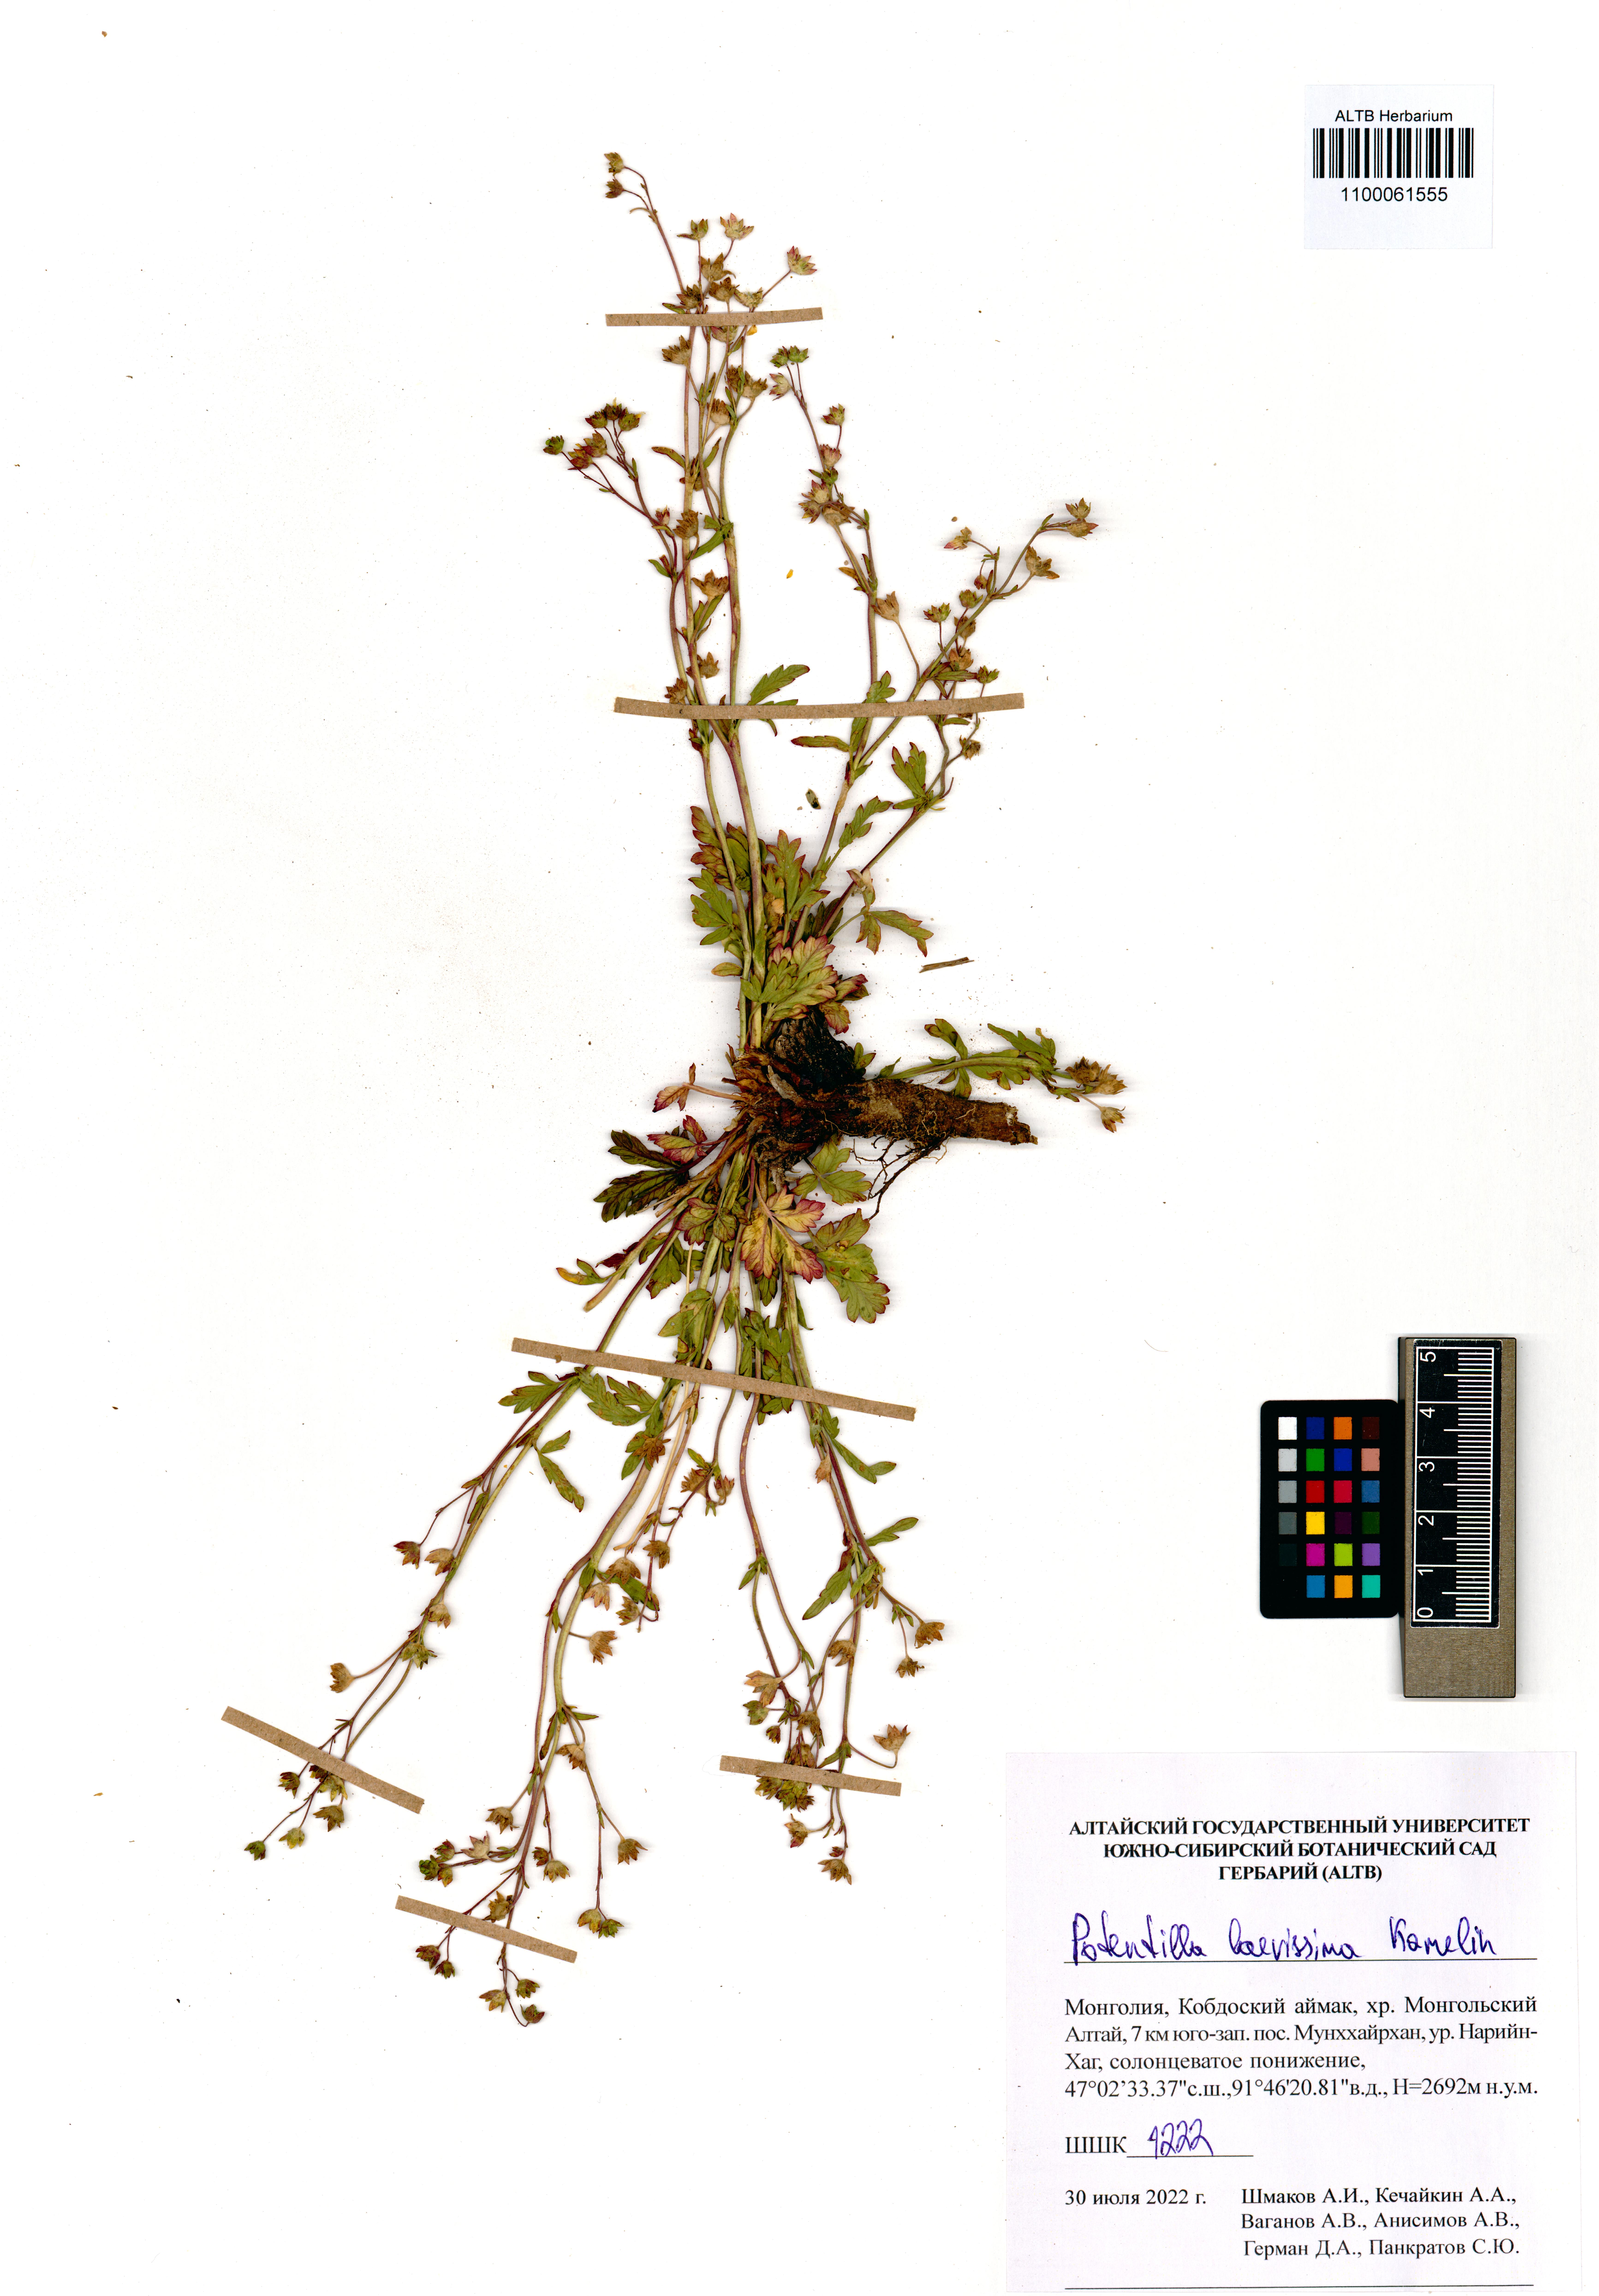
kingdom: Plantae
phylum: Tracheophyta
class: Magnoliopsida
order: Rosales
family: Rosaceae
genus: Potentilla
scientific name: Potentilla laevissima
